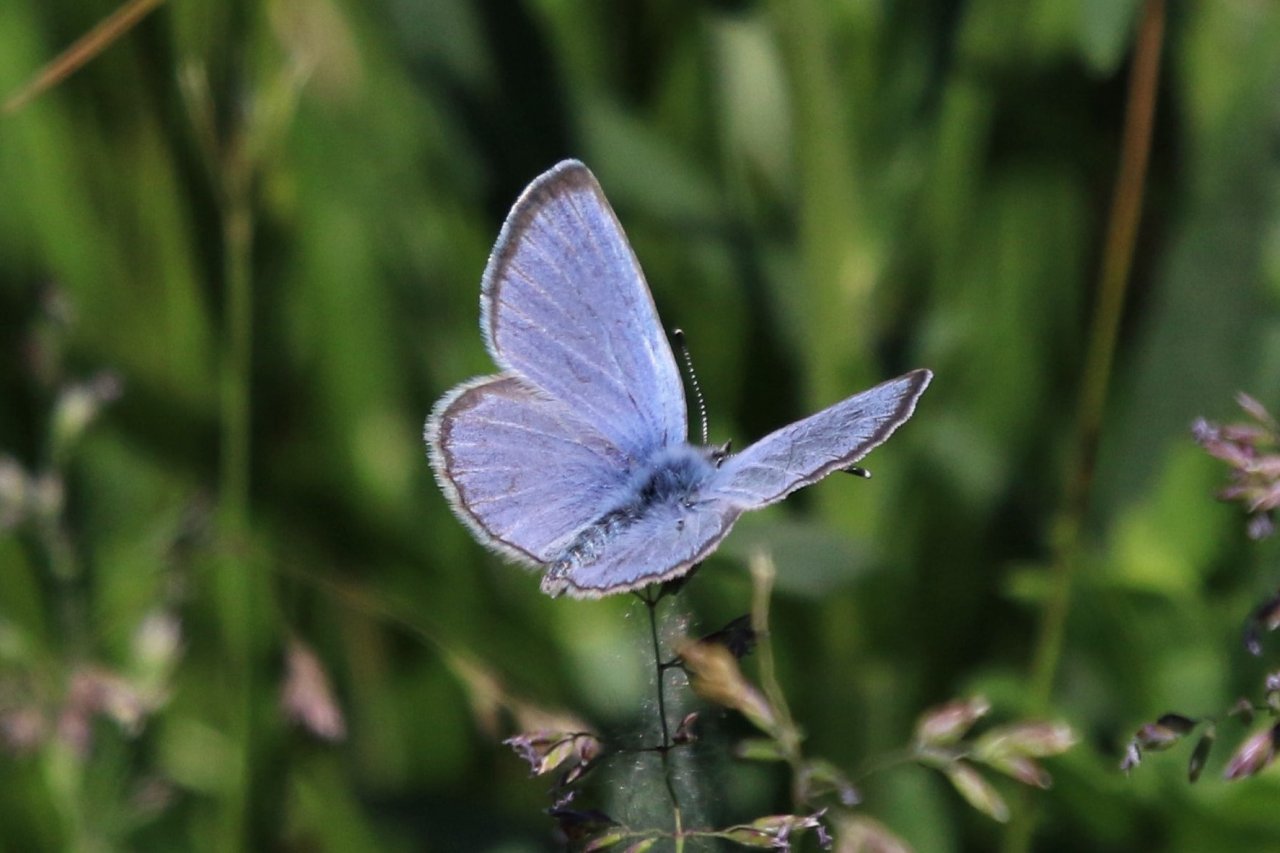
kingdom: Animalia
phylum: Arthropoda
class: Insecta
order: Lepidoptera
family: Lycaenidae
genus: Glaucopsyche
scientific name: Glaucopsyche lygdamus
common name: Silvery Blue
